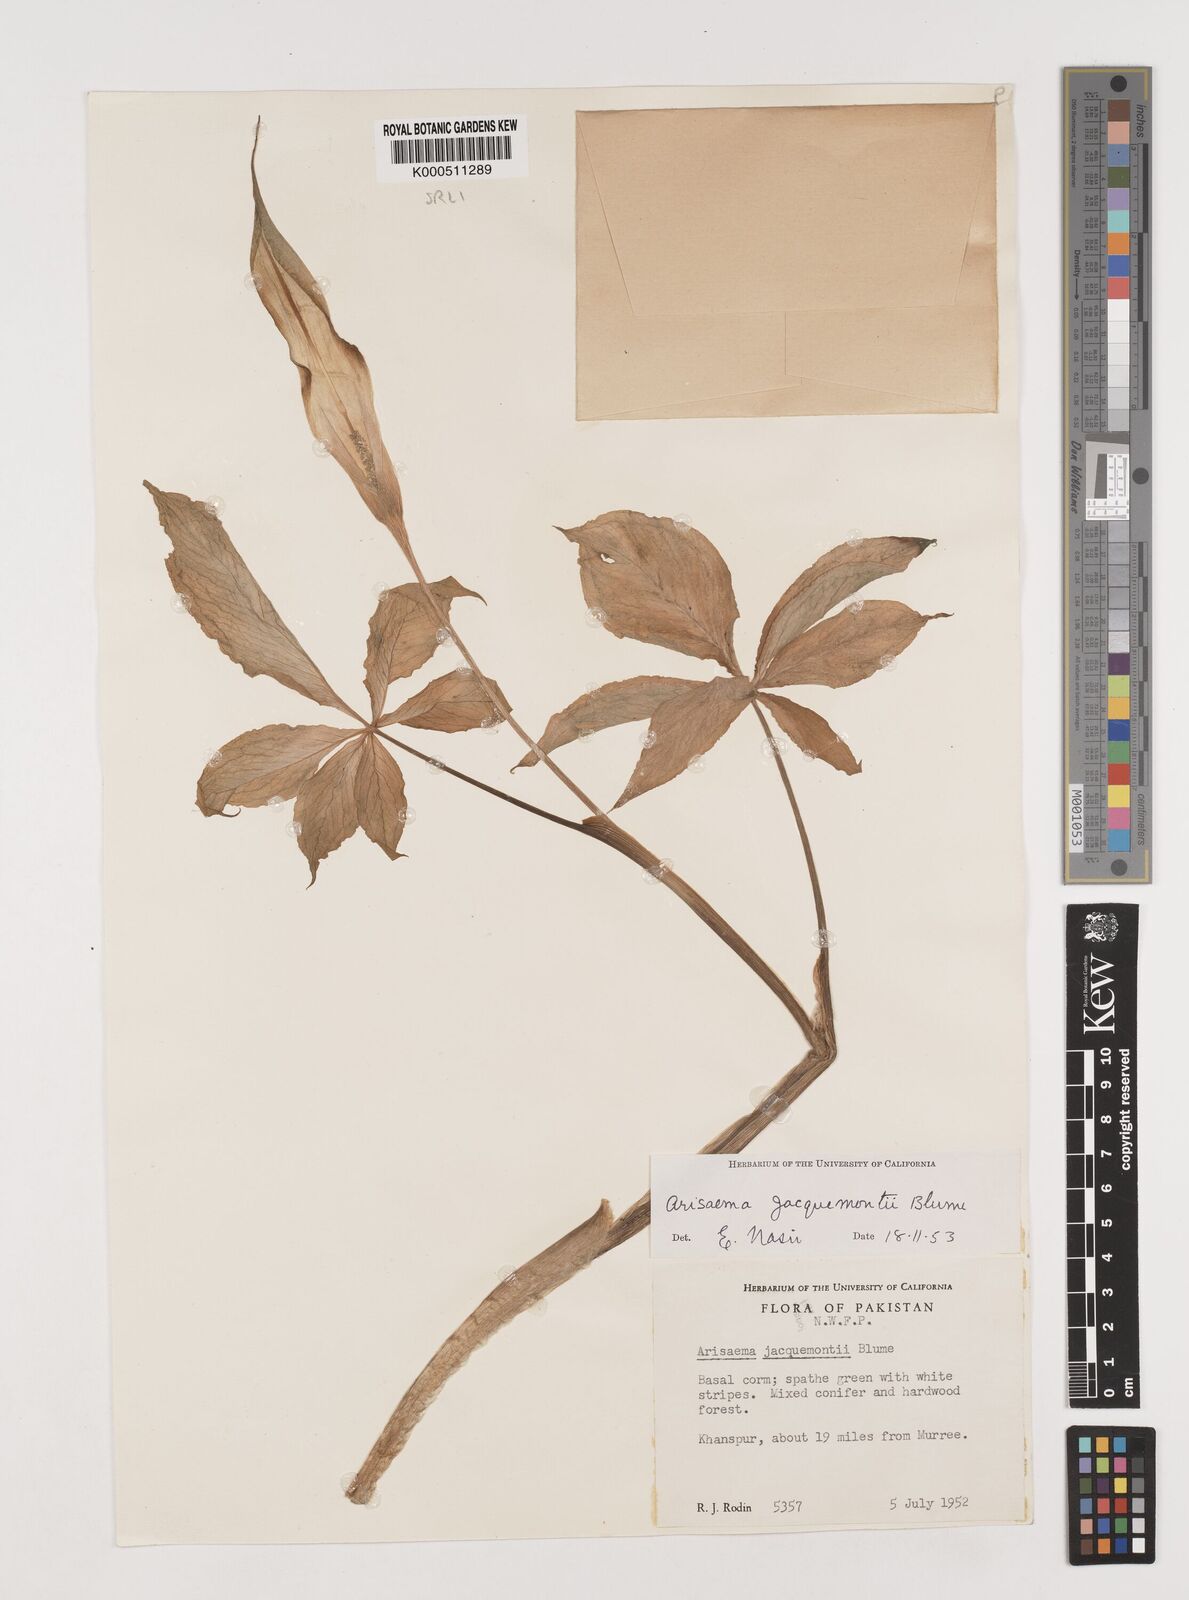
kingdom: Plantae
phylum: Tracheophyta
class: Liliopsida
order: Alismatales
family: Araceae
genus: Arisaema
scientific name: Arisaema jacquemontii
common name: Jacquemont's cobra-lily
